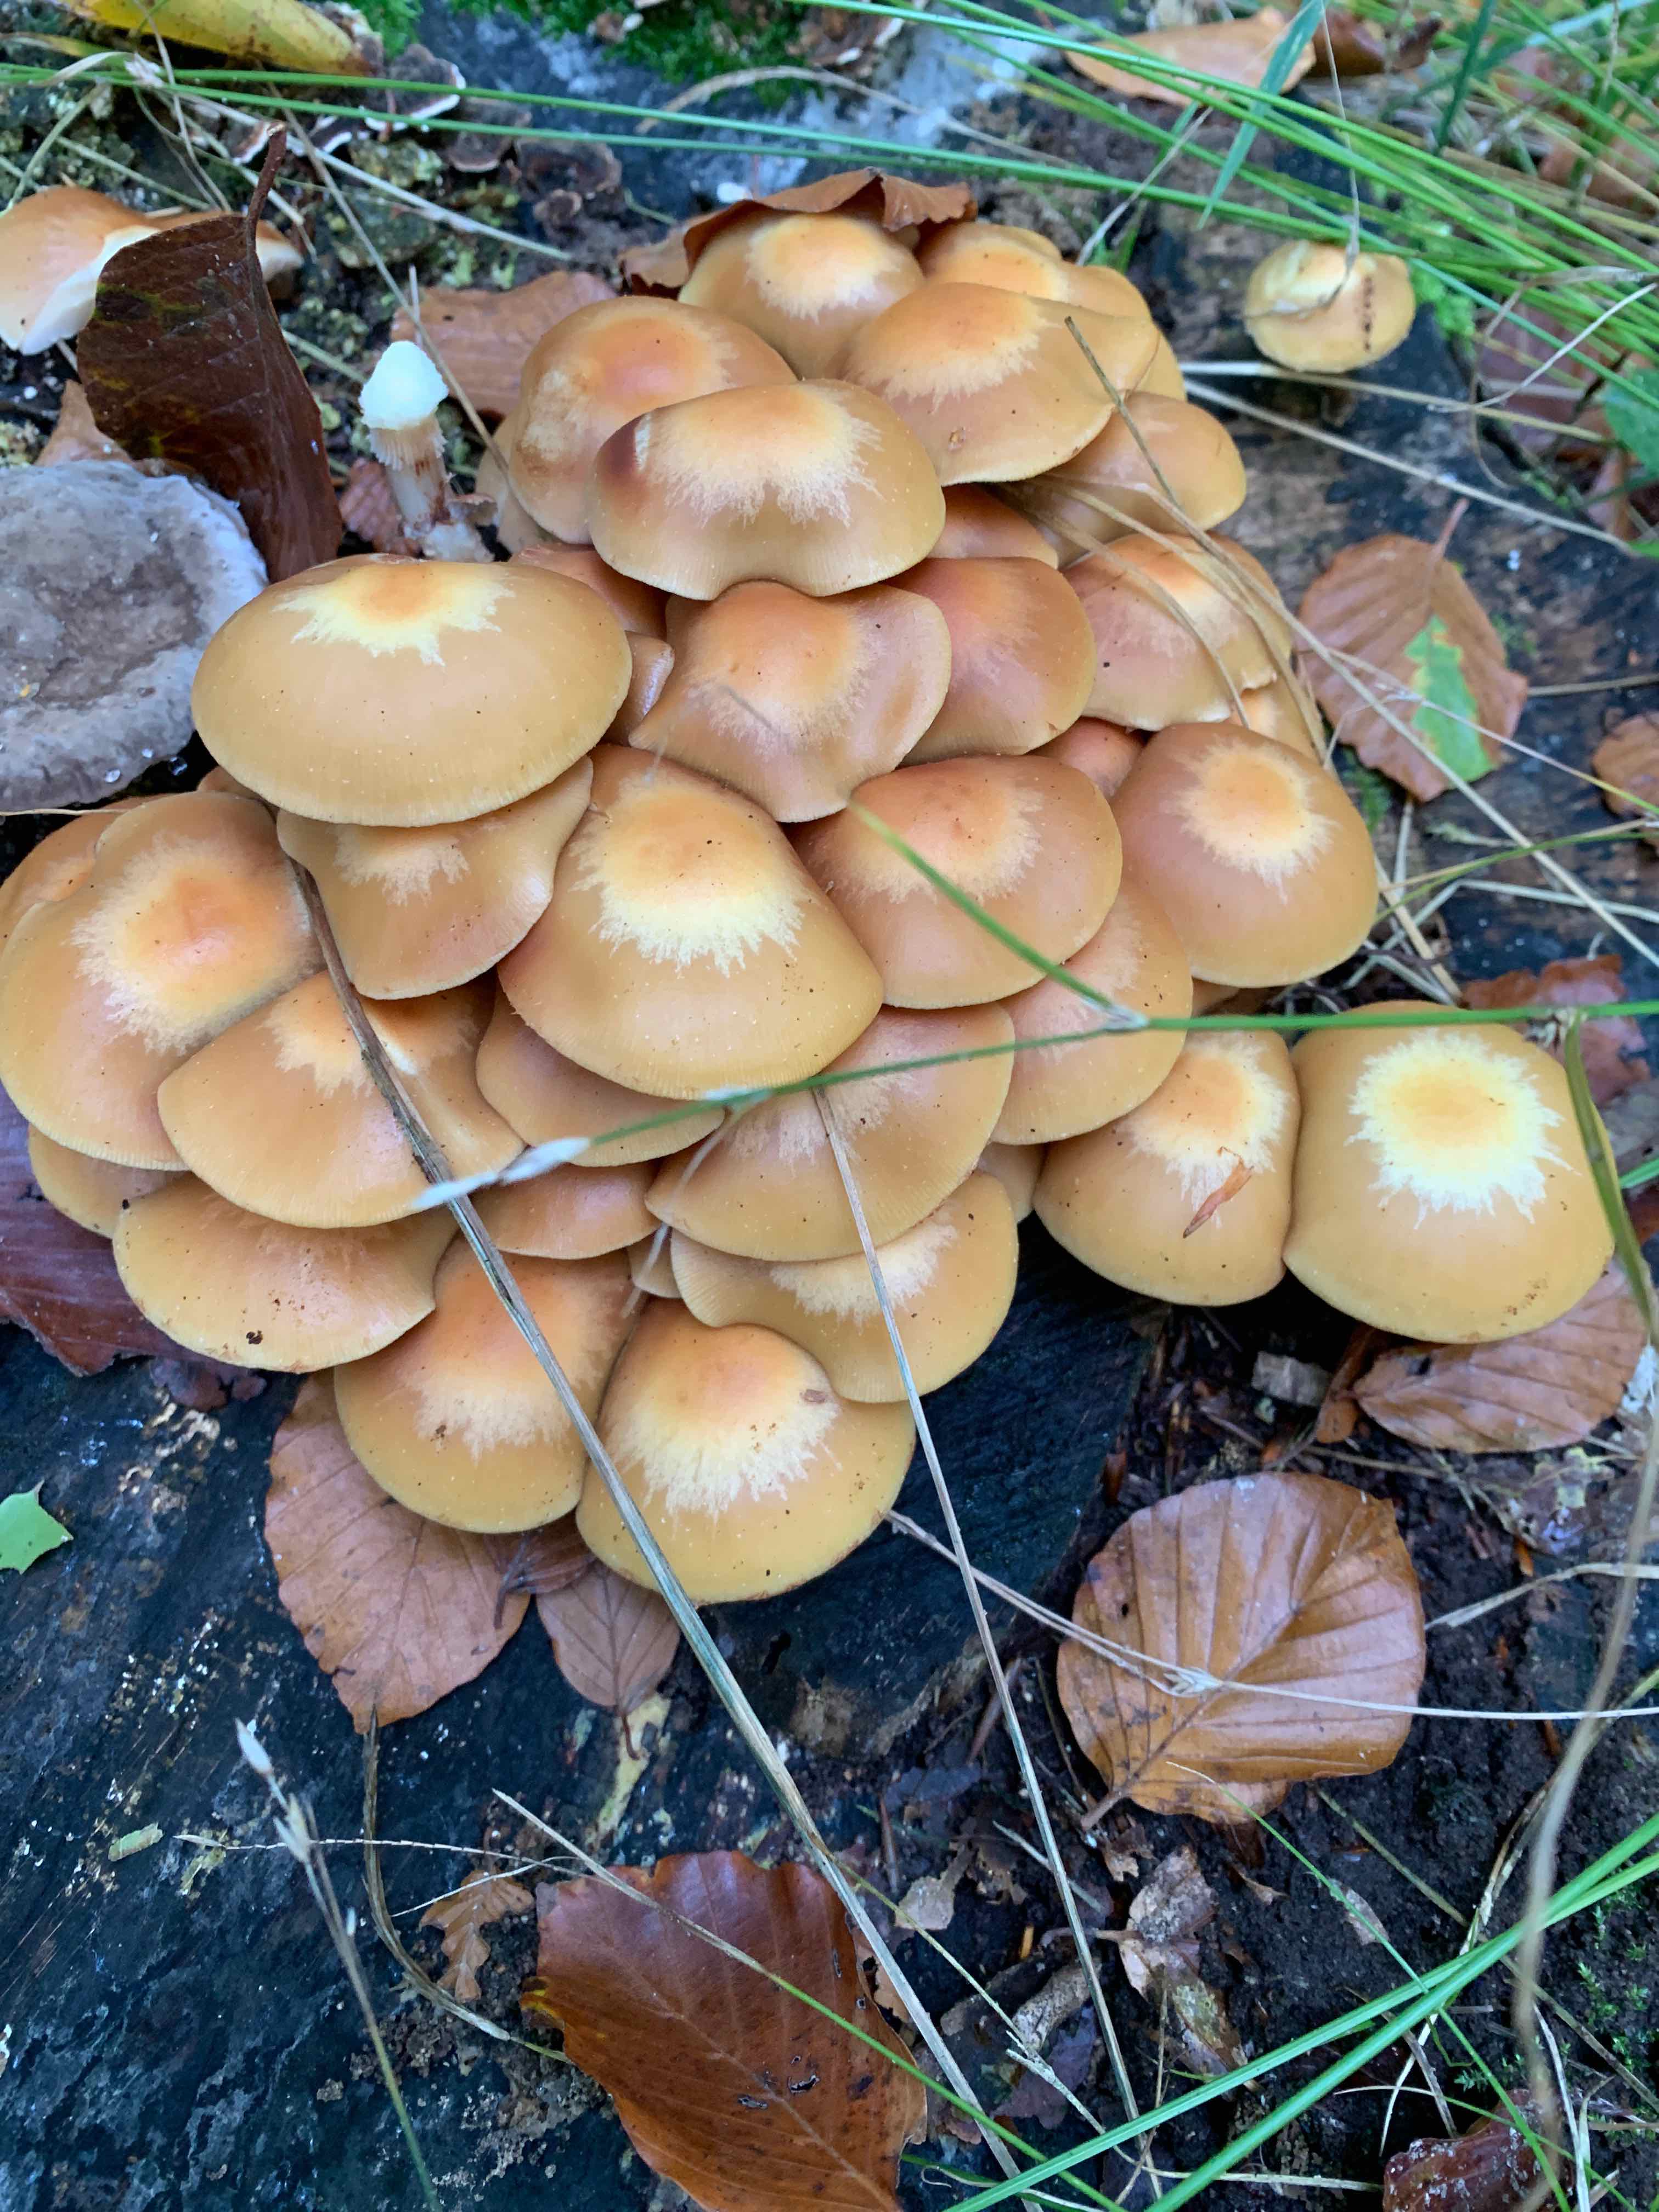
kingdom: Fungi
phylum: Basidiomycota
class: Agaricomycetes
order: Agaricales
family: Strophariaceae
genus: Kuehneromyces
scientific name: Kuehneromyces mutabilis
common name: foranderlig skælhat
